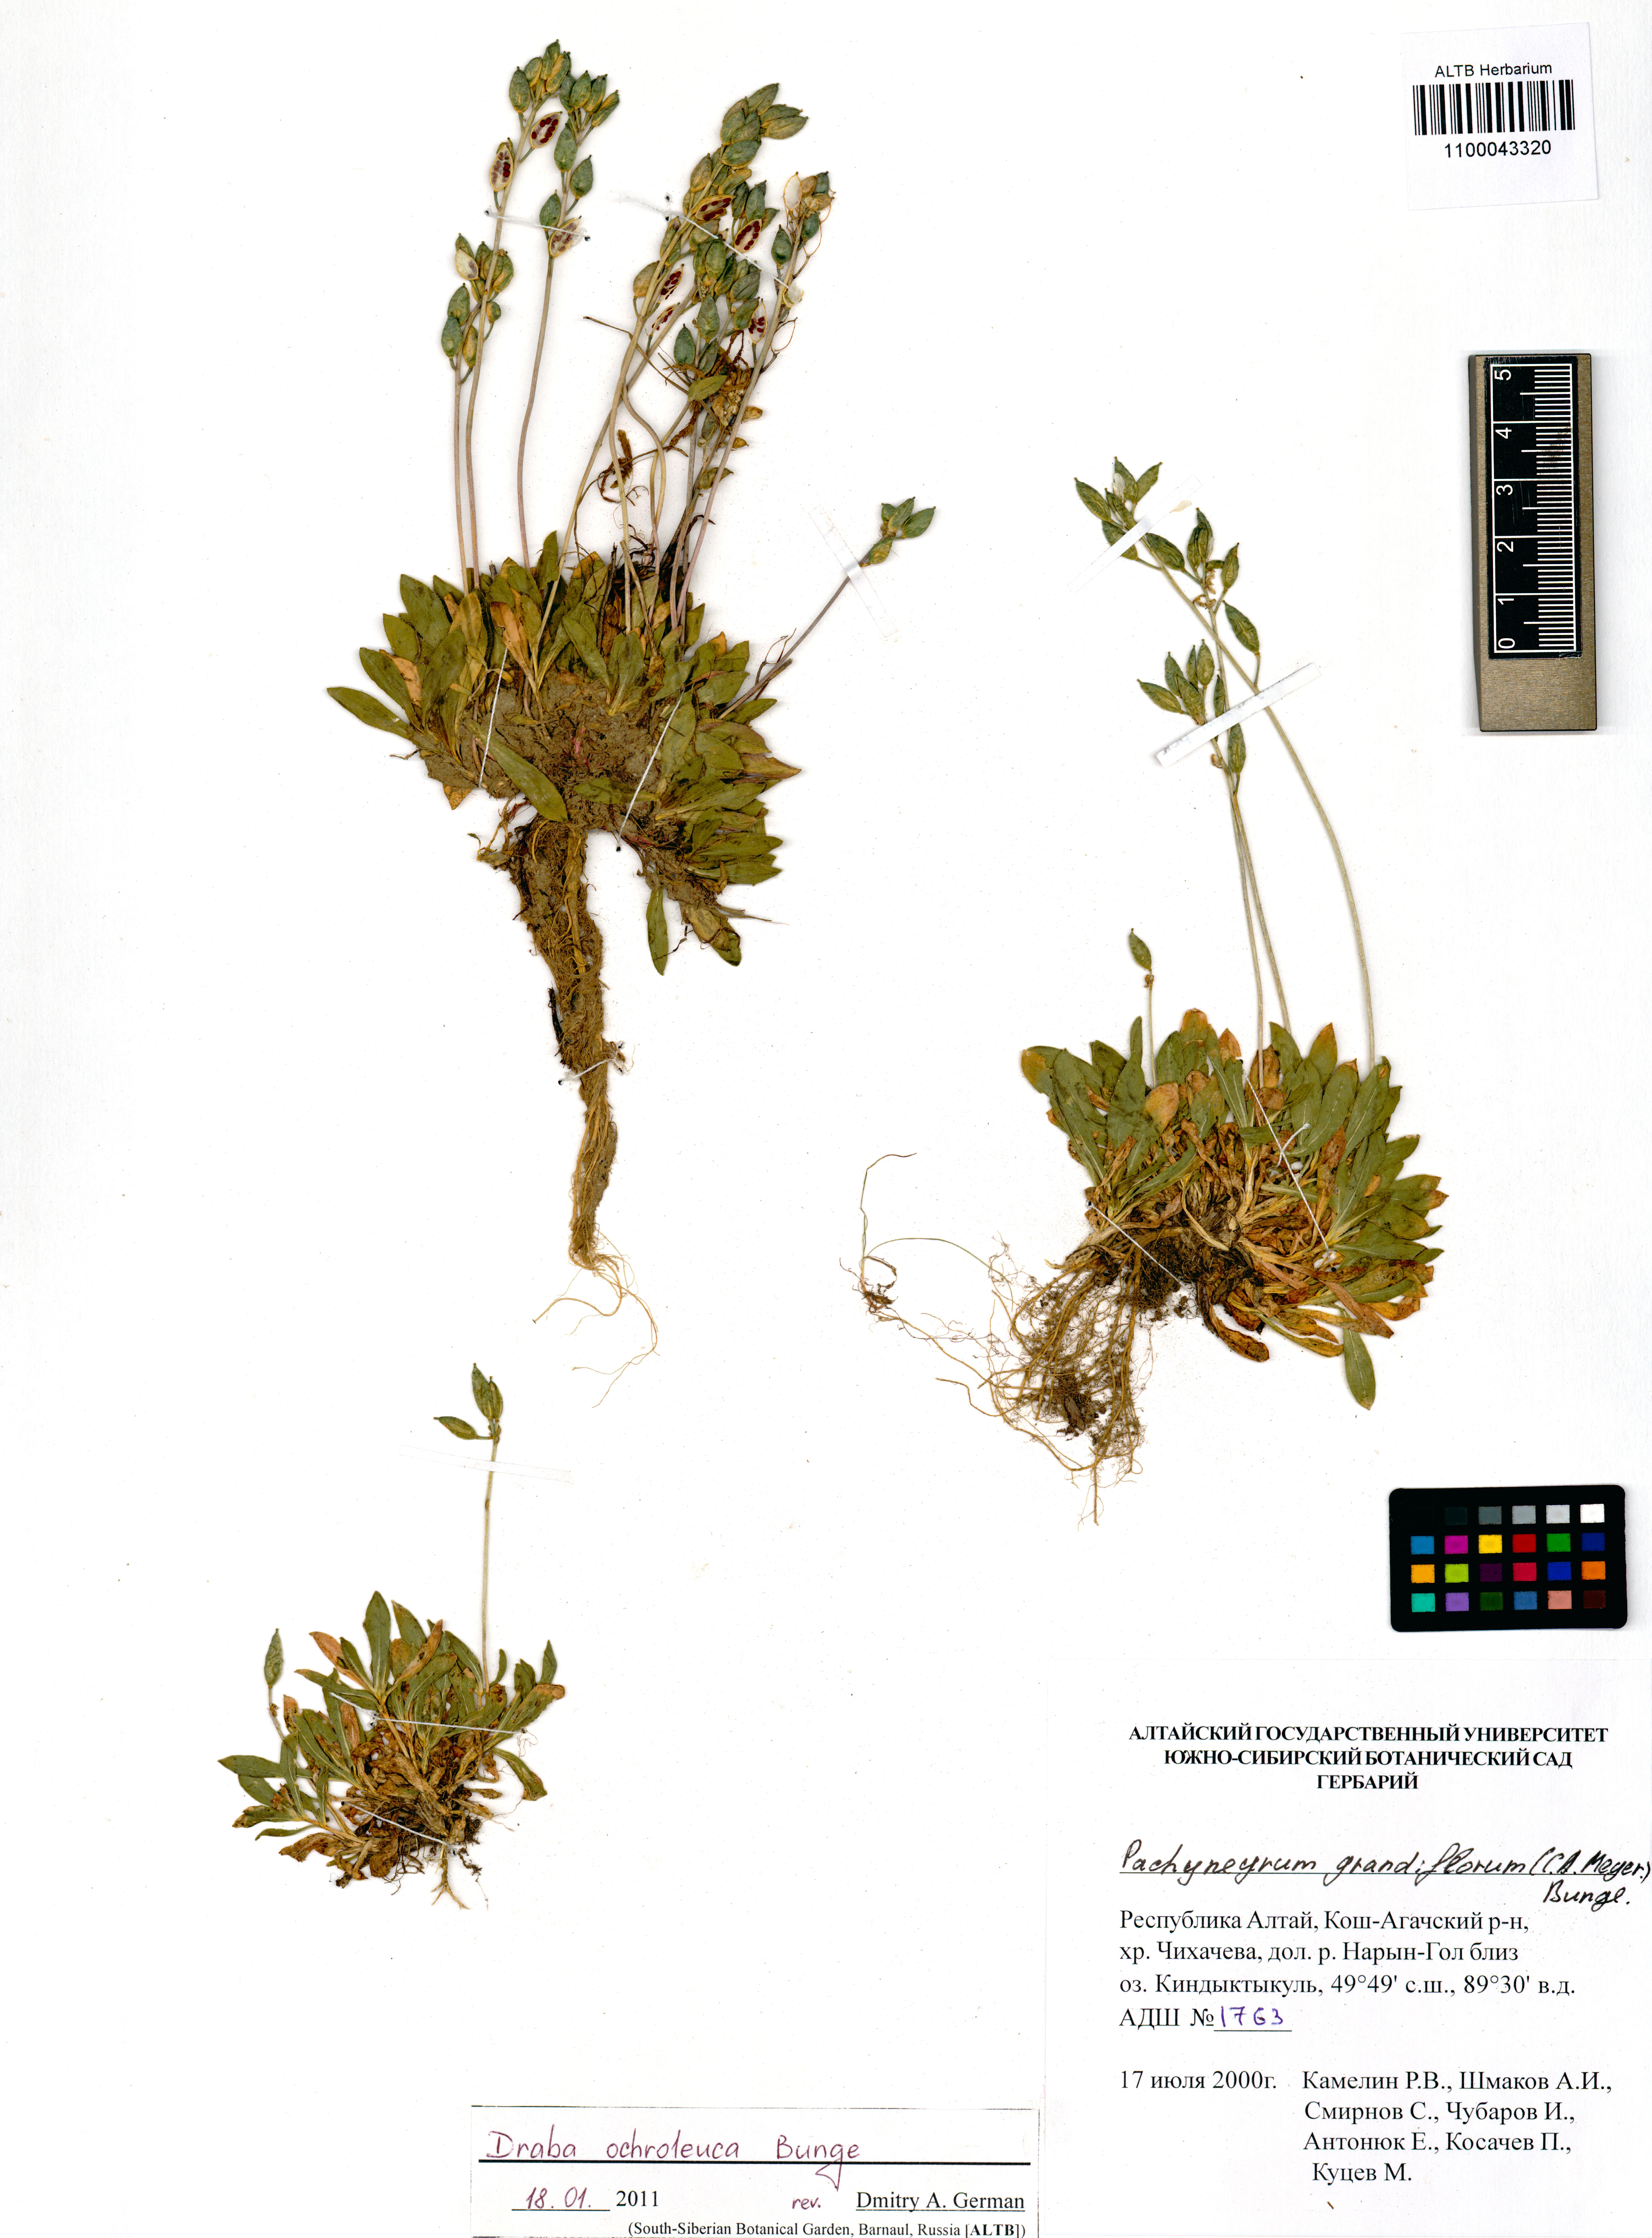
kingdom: Plantae
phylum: Tracheophyta
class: Magnoliopsida
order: Brassicales
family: Brassicaceae
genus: Draba
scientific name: Draba ochroleuca
